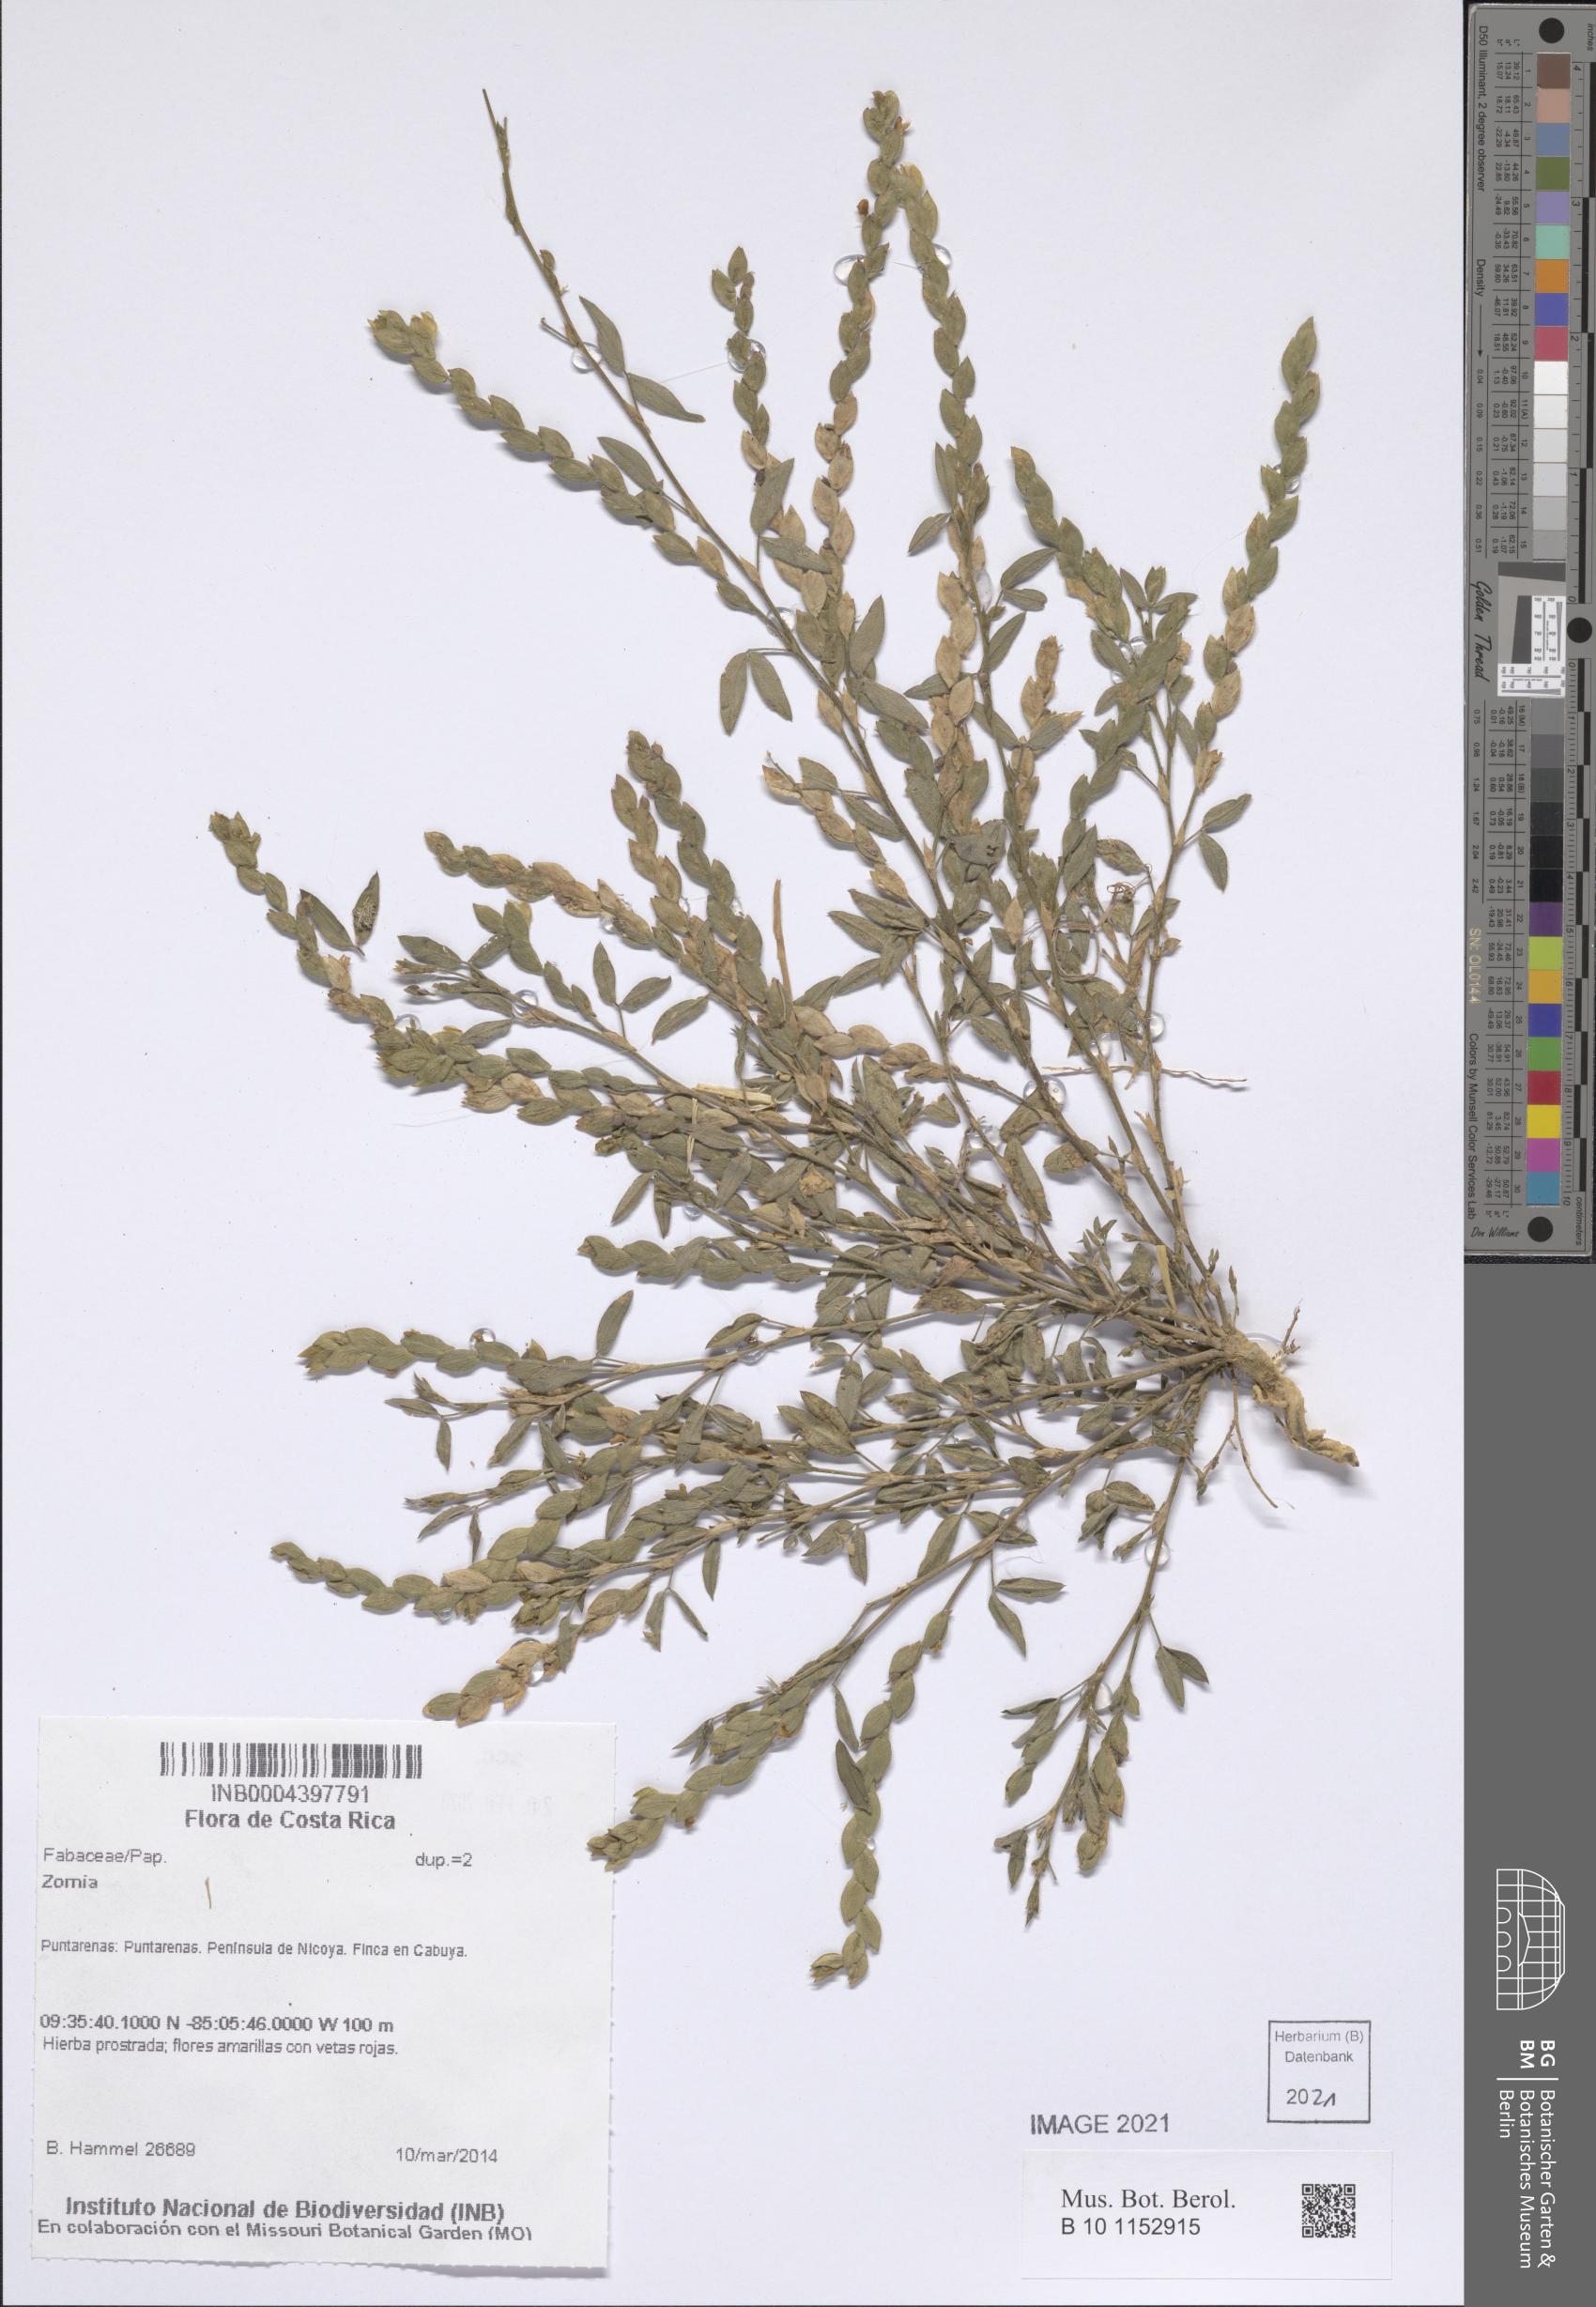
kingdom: Plantae
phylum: Tracheophyta
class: Magnoliopsida
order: Fabales
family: Fabaceae
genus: Zornia
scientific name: Zornia
